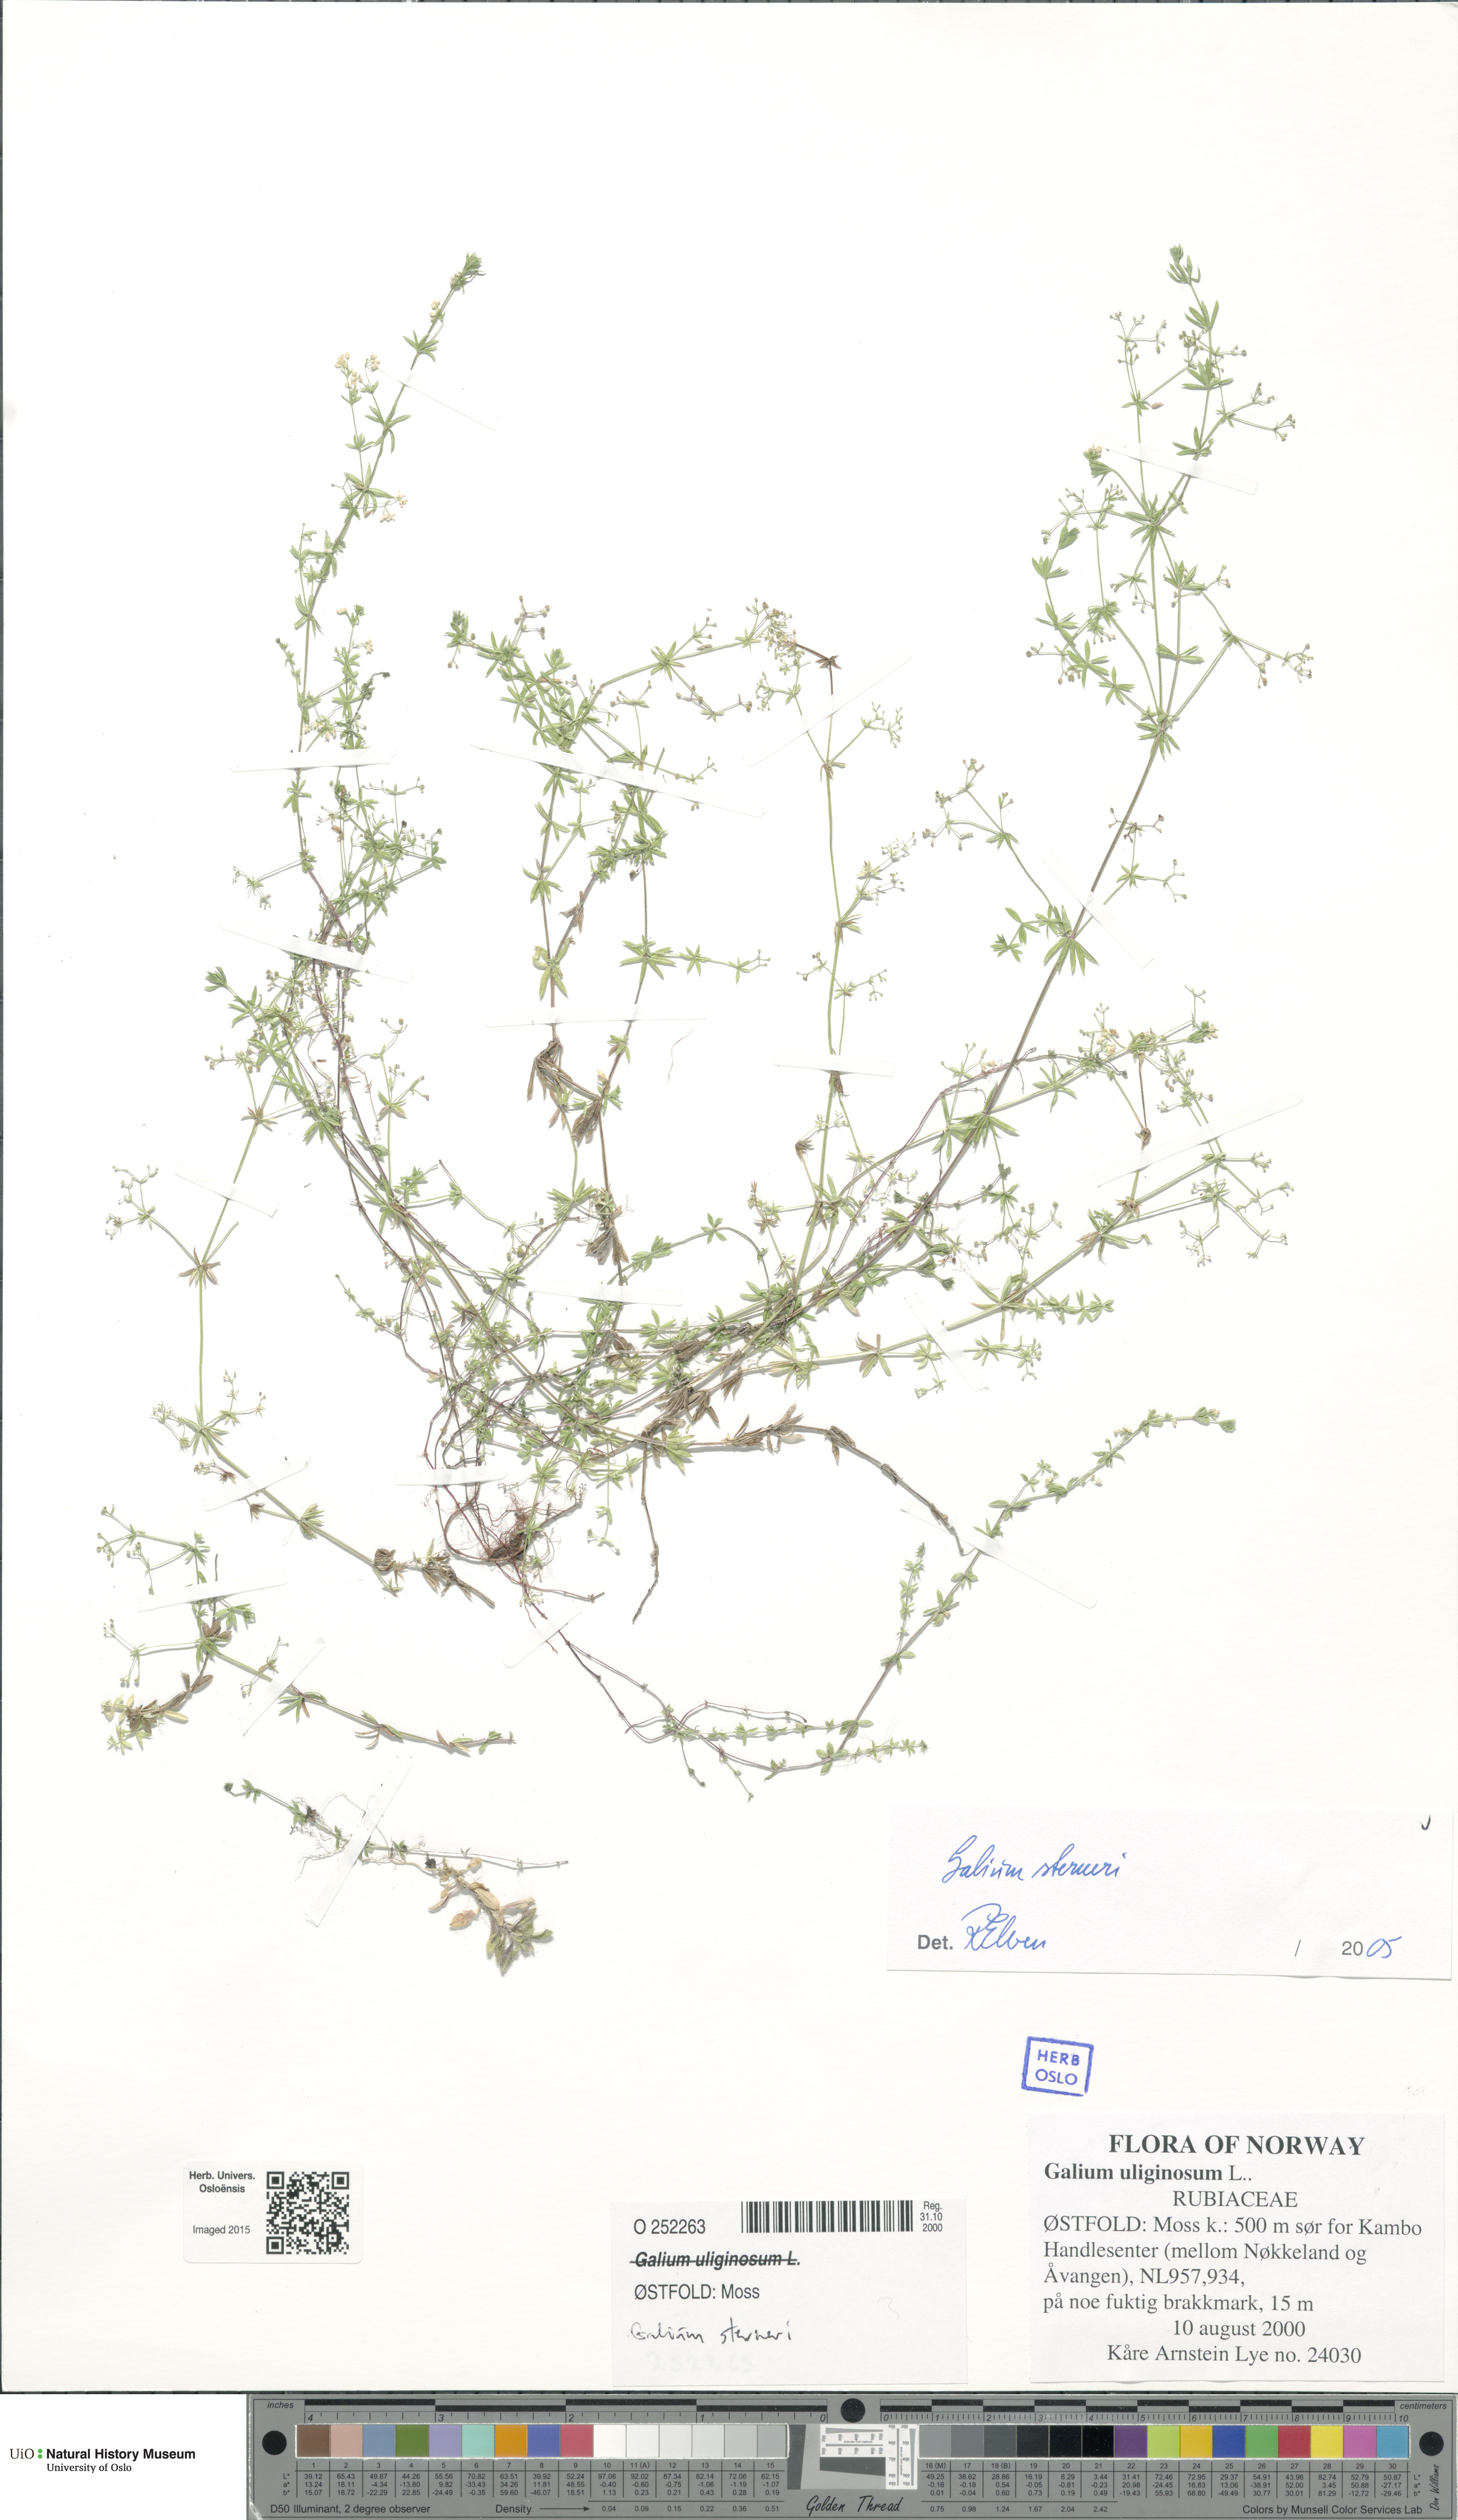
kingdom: Plantae
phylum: Tracheophyta
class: Magnoliopsida
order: Gentianales
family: Rubiaceae
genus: Galium
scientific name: Galium sterneri
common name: Limestone bedstraw
